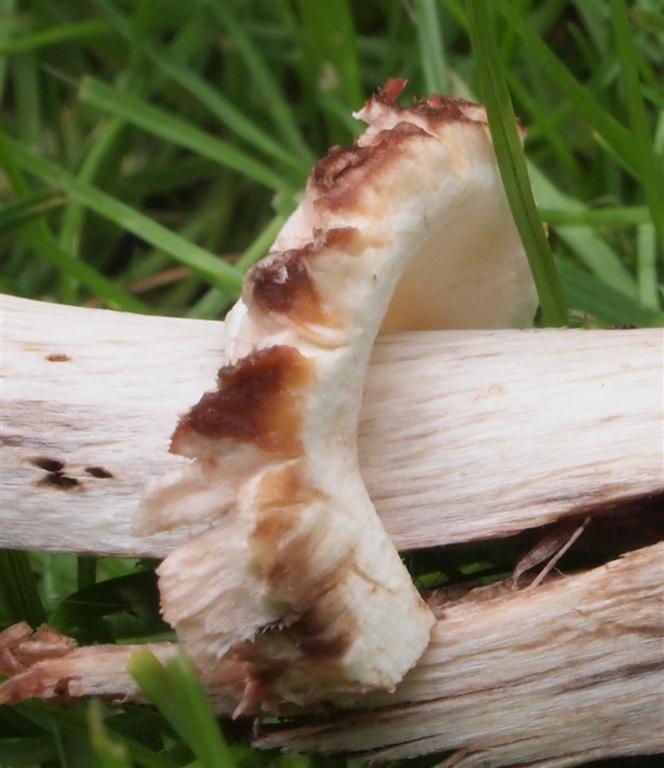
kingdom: Fungi
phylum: Basidiomycota
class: Agaricomycetes
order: Agaricales
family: Agaricaceae
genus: Chlorophyllum
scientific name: Chlorophyllum olivieri
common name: almindelig rabarberhat
